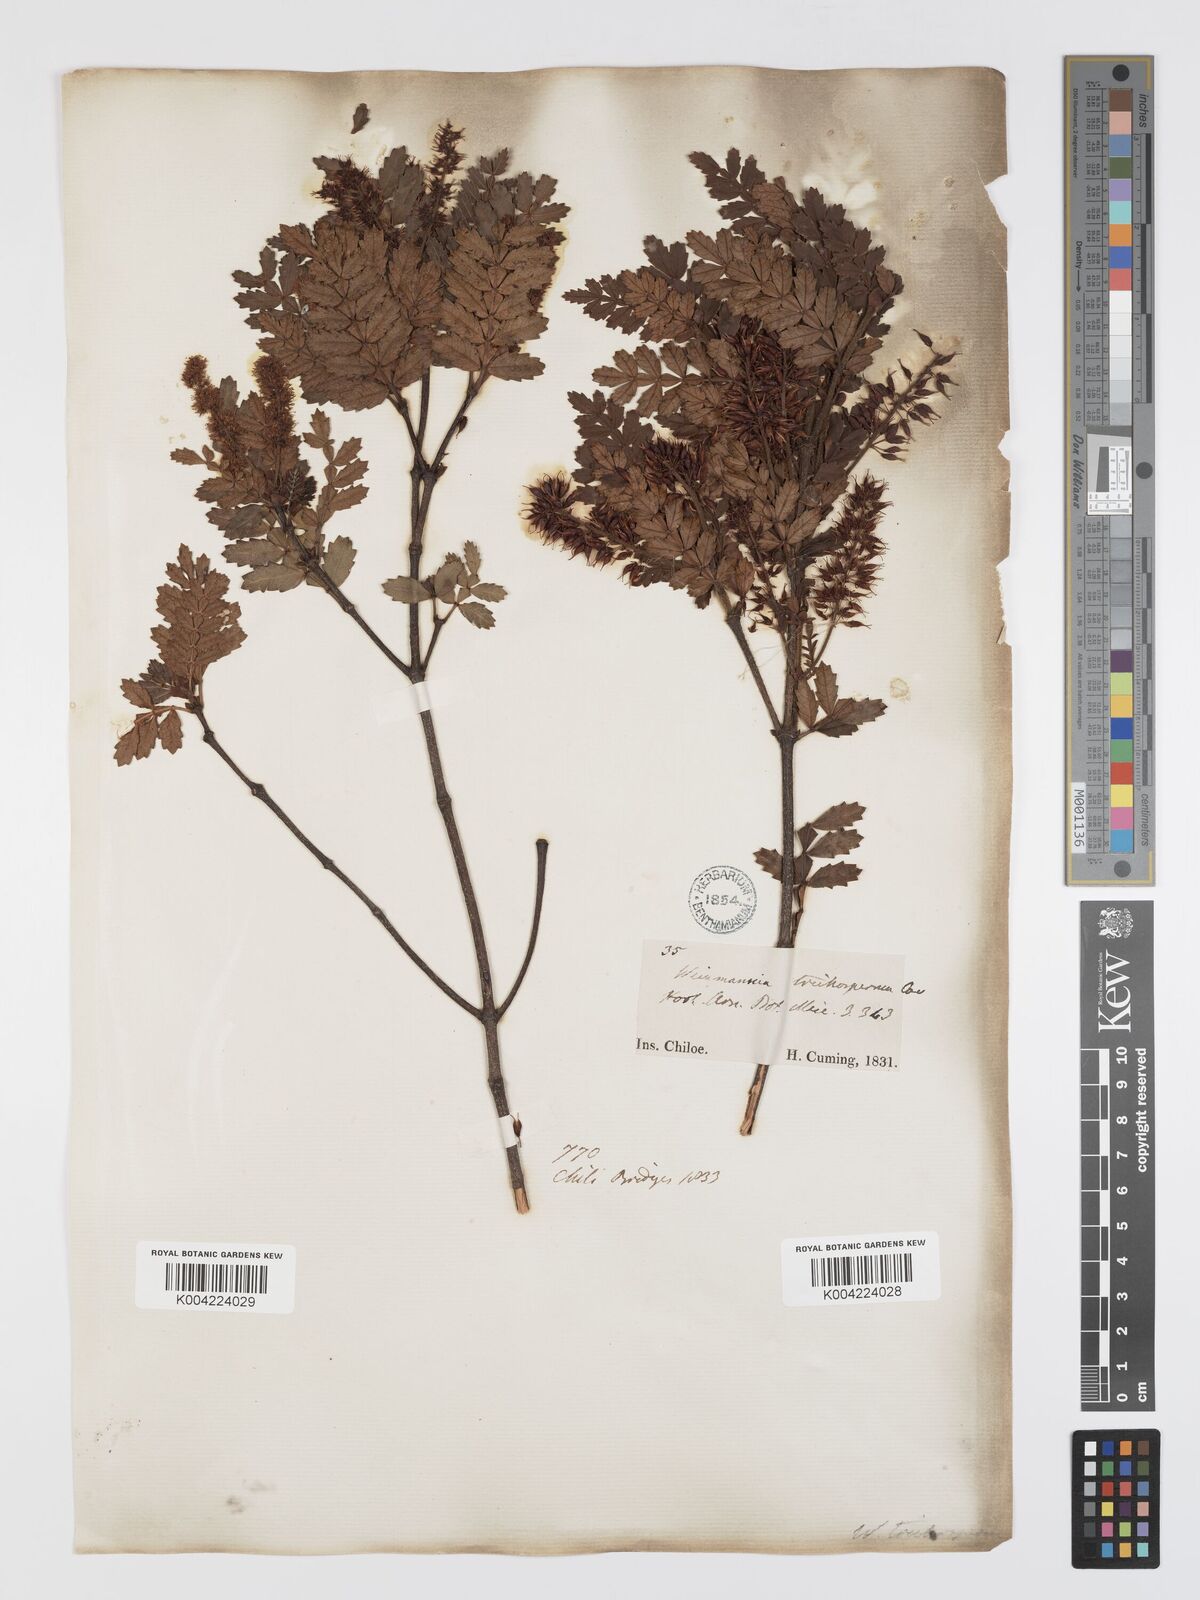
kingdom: Plantae
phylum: Tracheophyta
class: Magnoliopsida
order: Oxalidales
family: Cunoniaceae
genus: Weinmannia
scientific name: Weinmannia trichosperma
